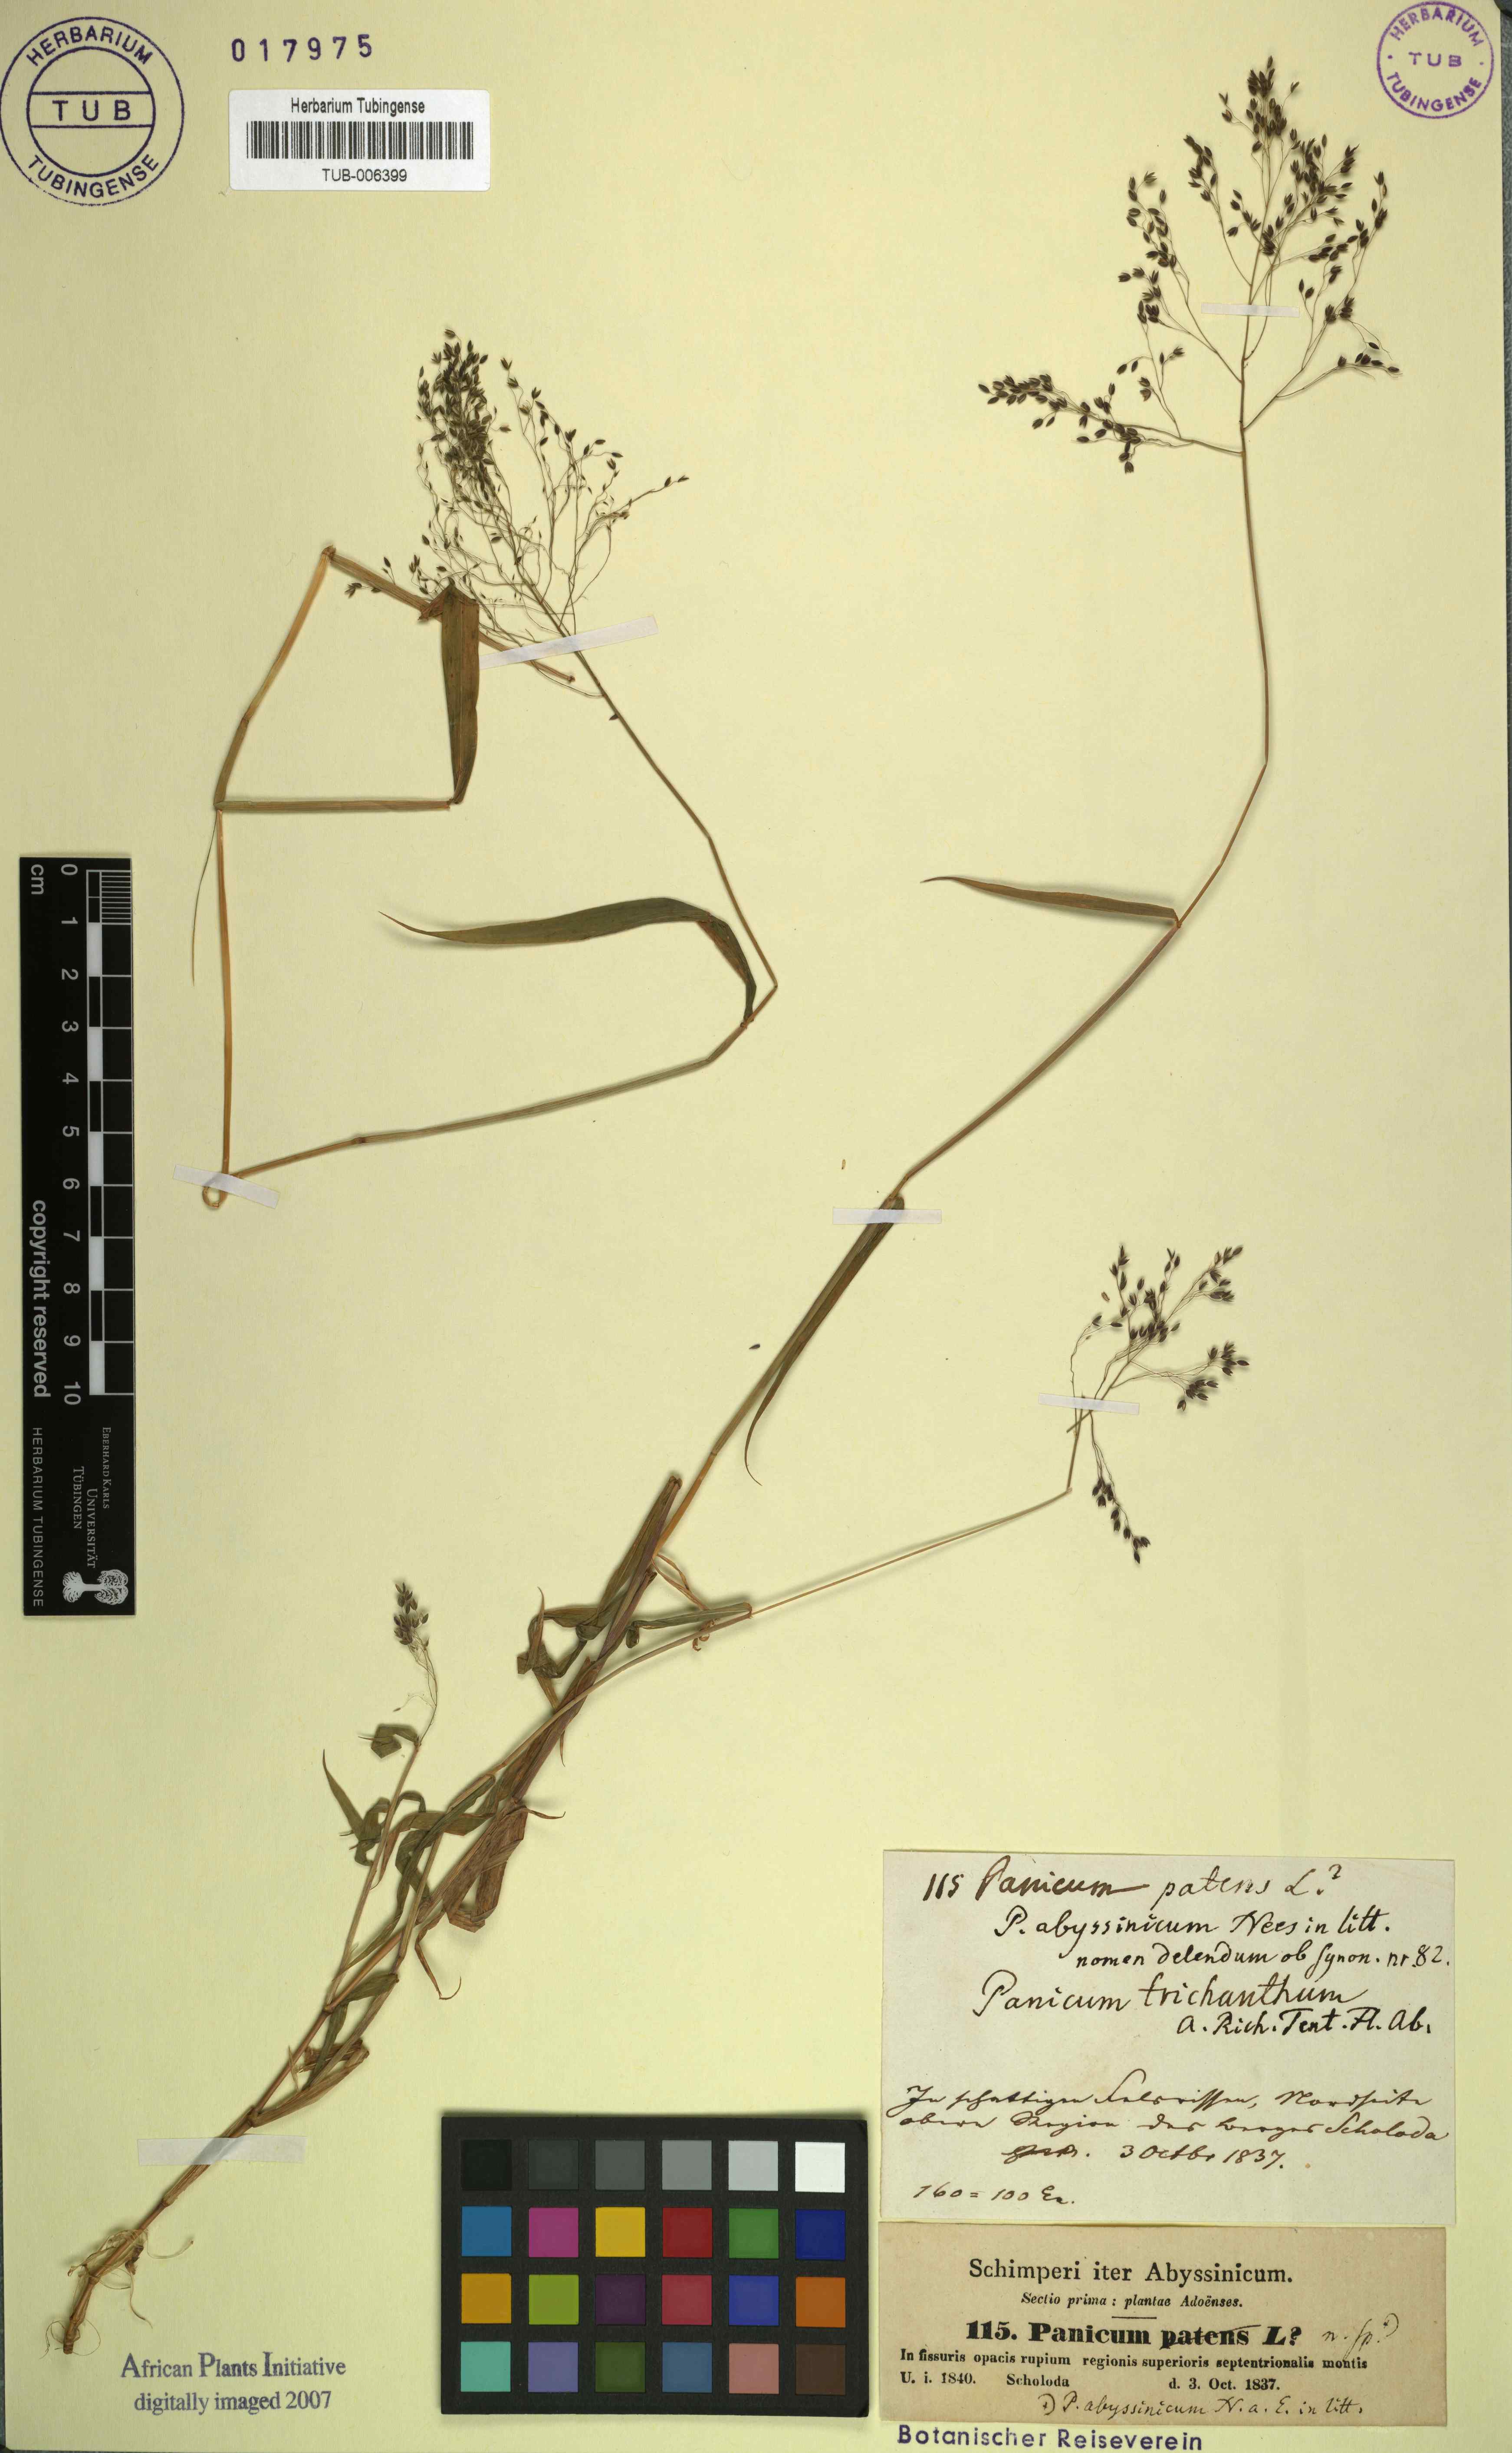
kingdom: Plantae
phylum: Tracheophyta
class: Liliopsida
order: Poales
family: Poaceae
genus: Panicum
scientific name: Panicum abyssinicum
